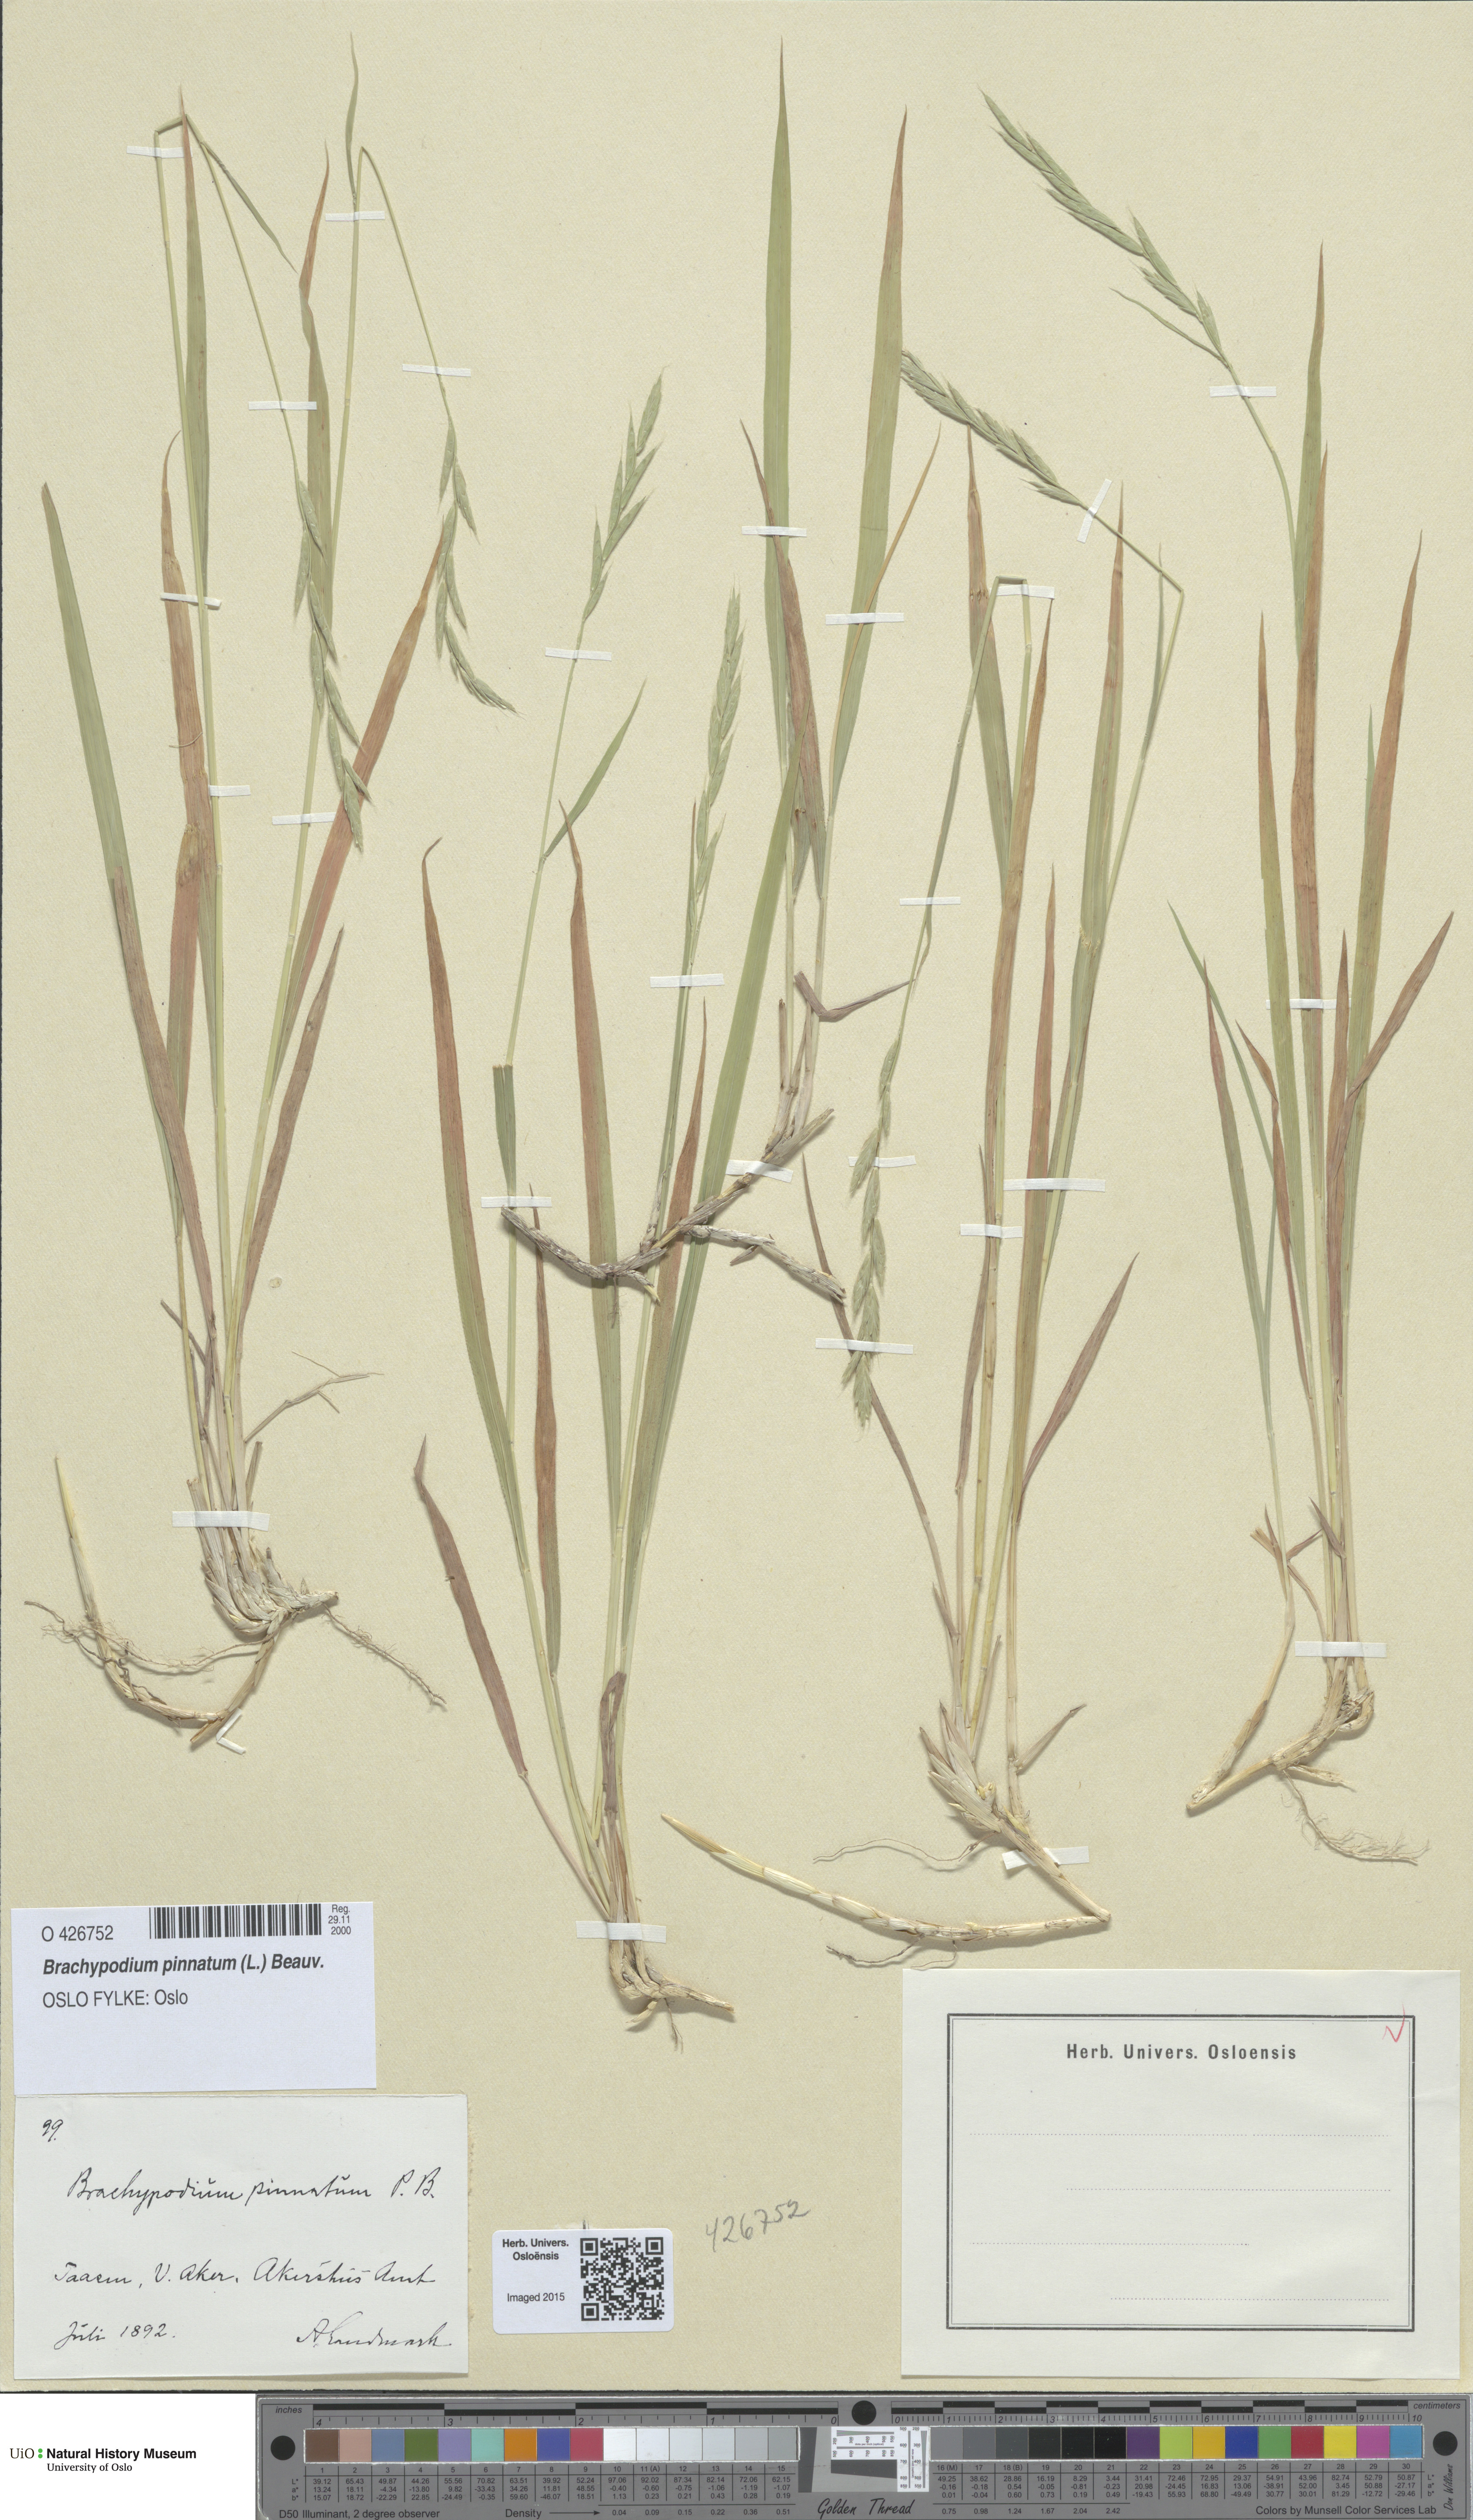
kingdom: Plantae
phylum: Tracheophyta
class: Liliopsida
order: Poales
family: Poaceae
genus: Brachypodium
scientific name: Brachypodium pinnatum
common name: Tor grass
